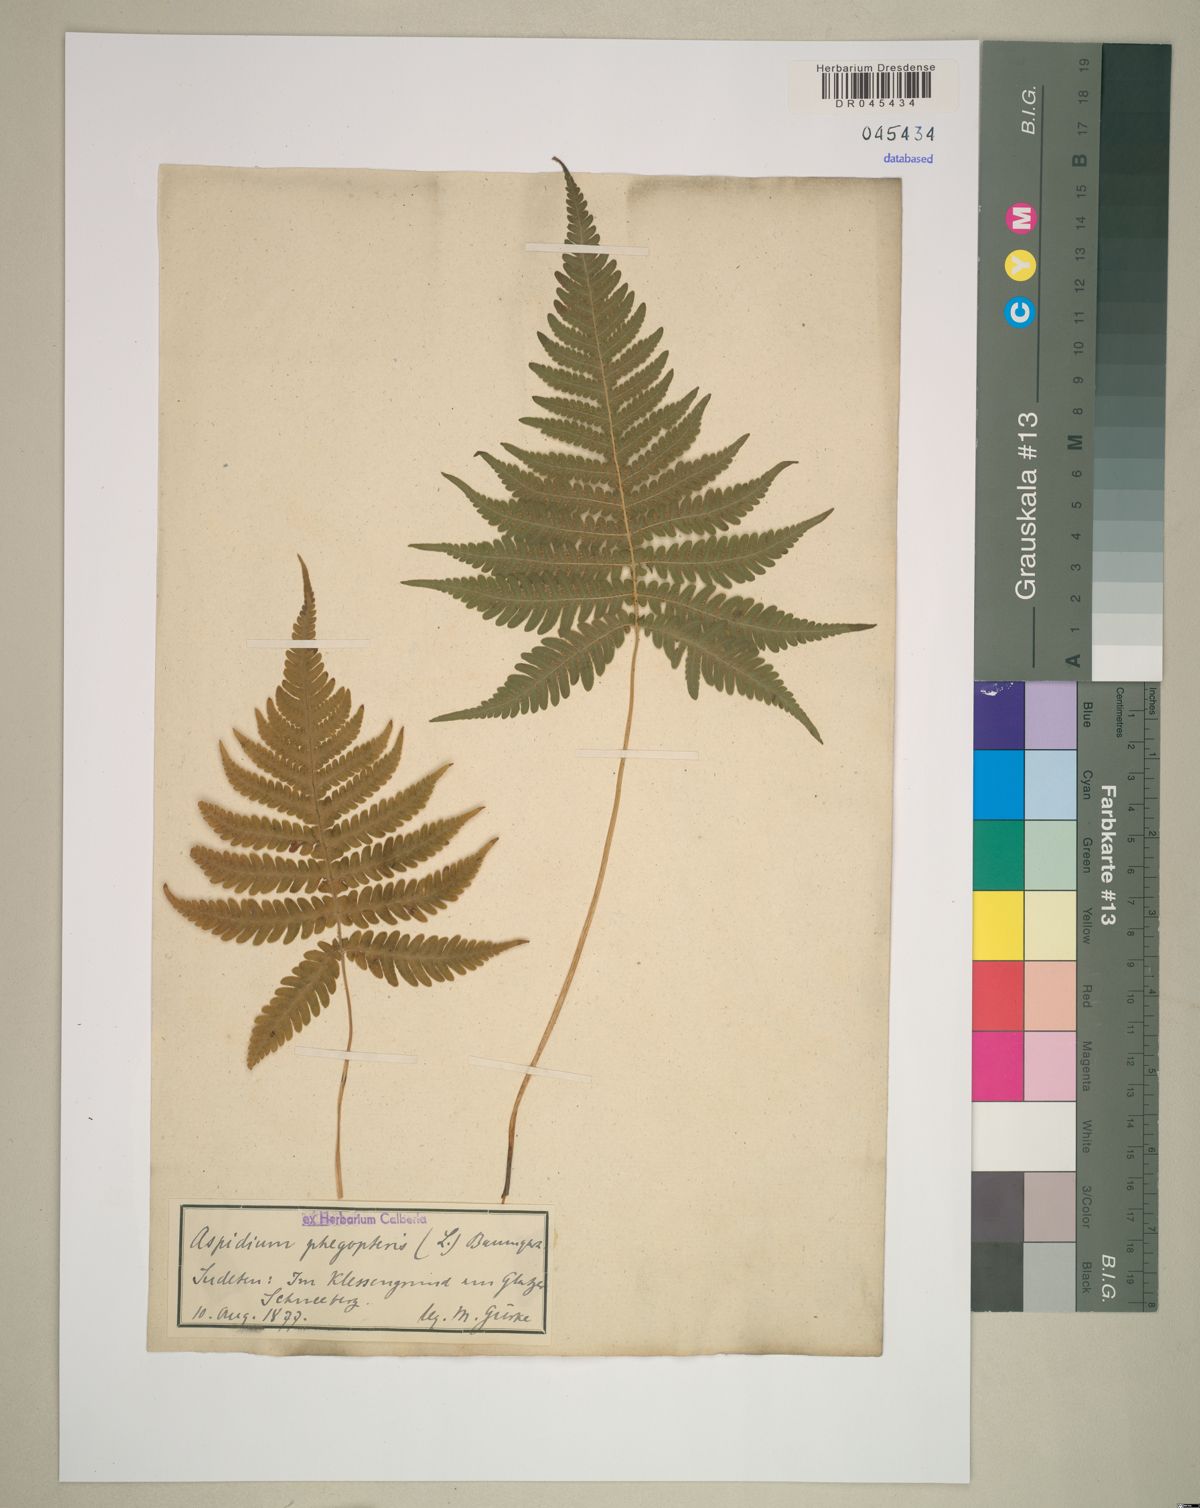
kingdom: Plantae
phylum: Tracheophyta
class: Polypodiopsida
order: Polypodiales
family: Thelypteridaceae
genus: Phegopteris
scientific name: Phegopteris connectilis
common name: Beech fern
